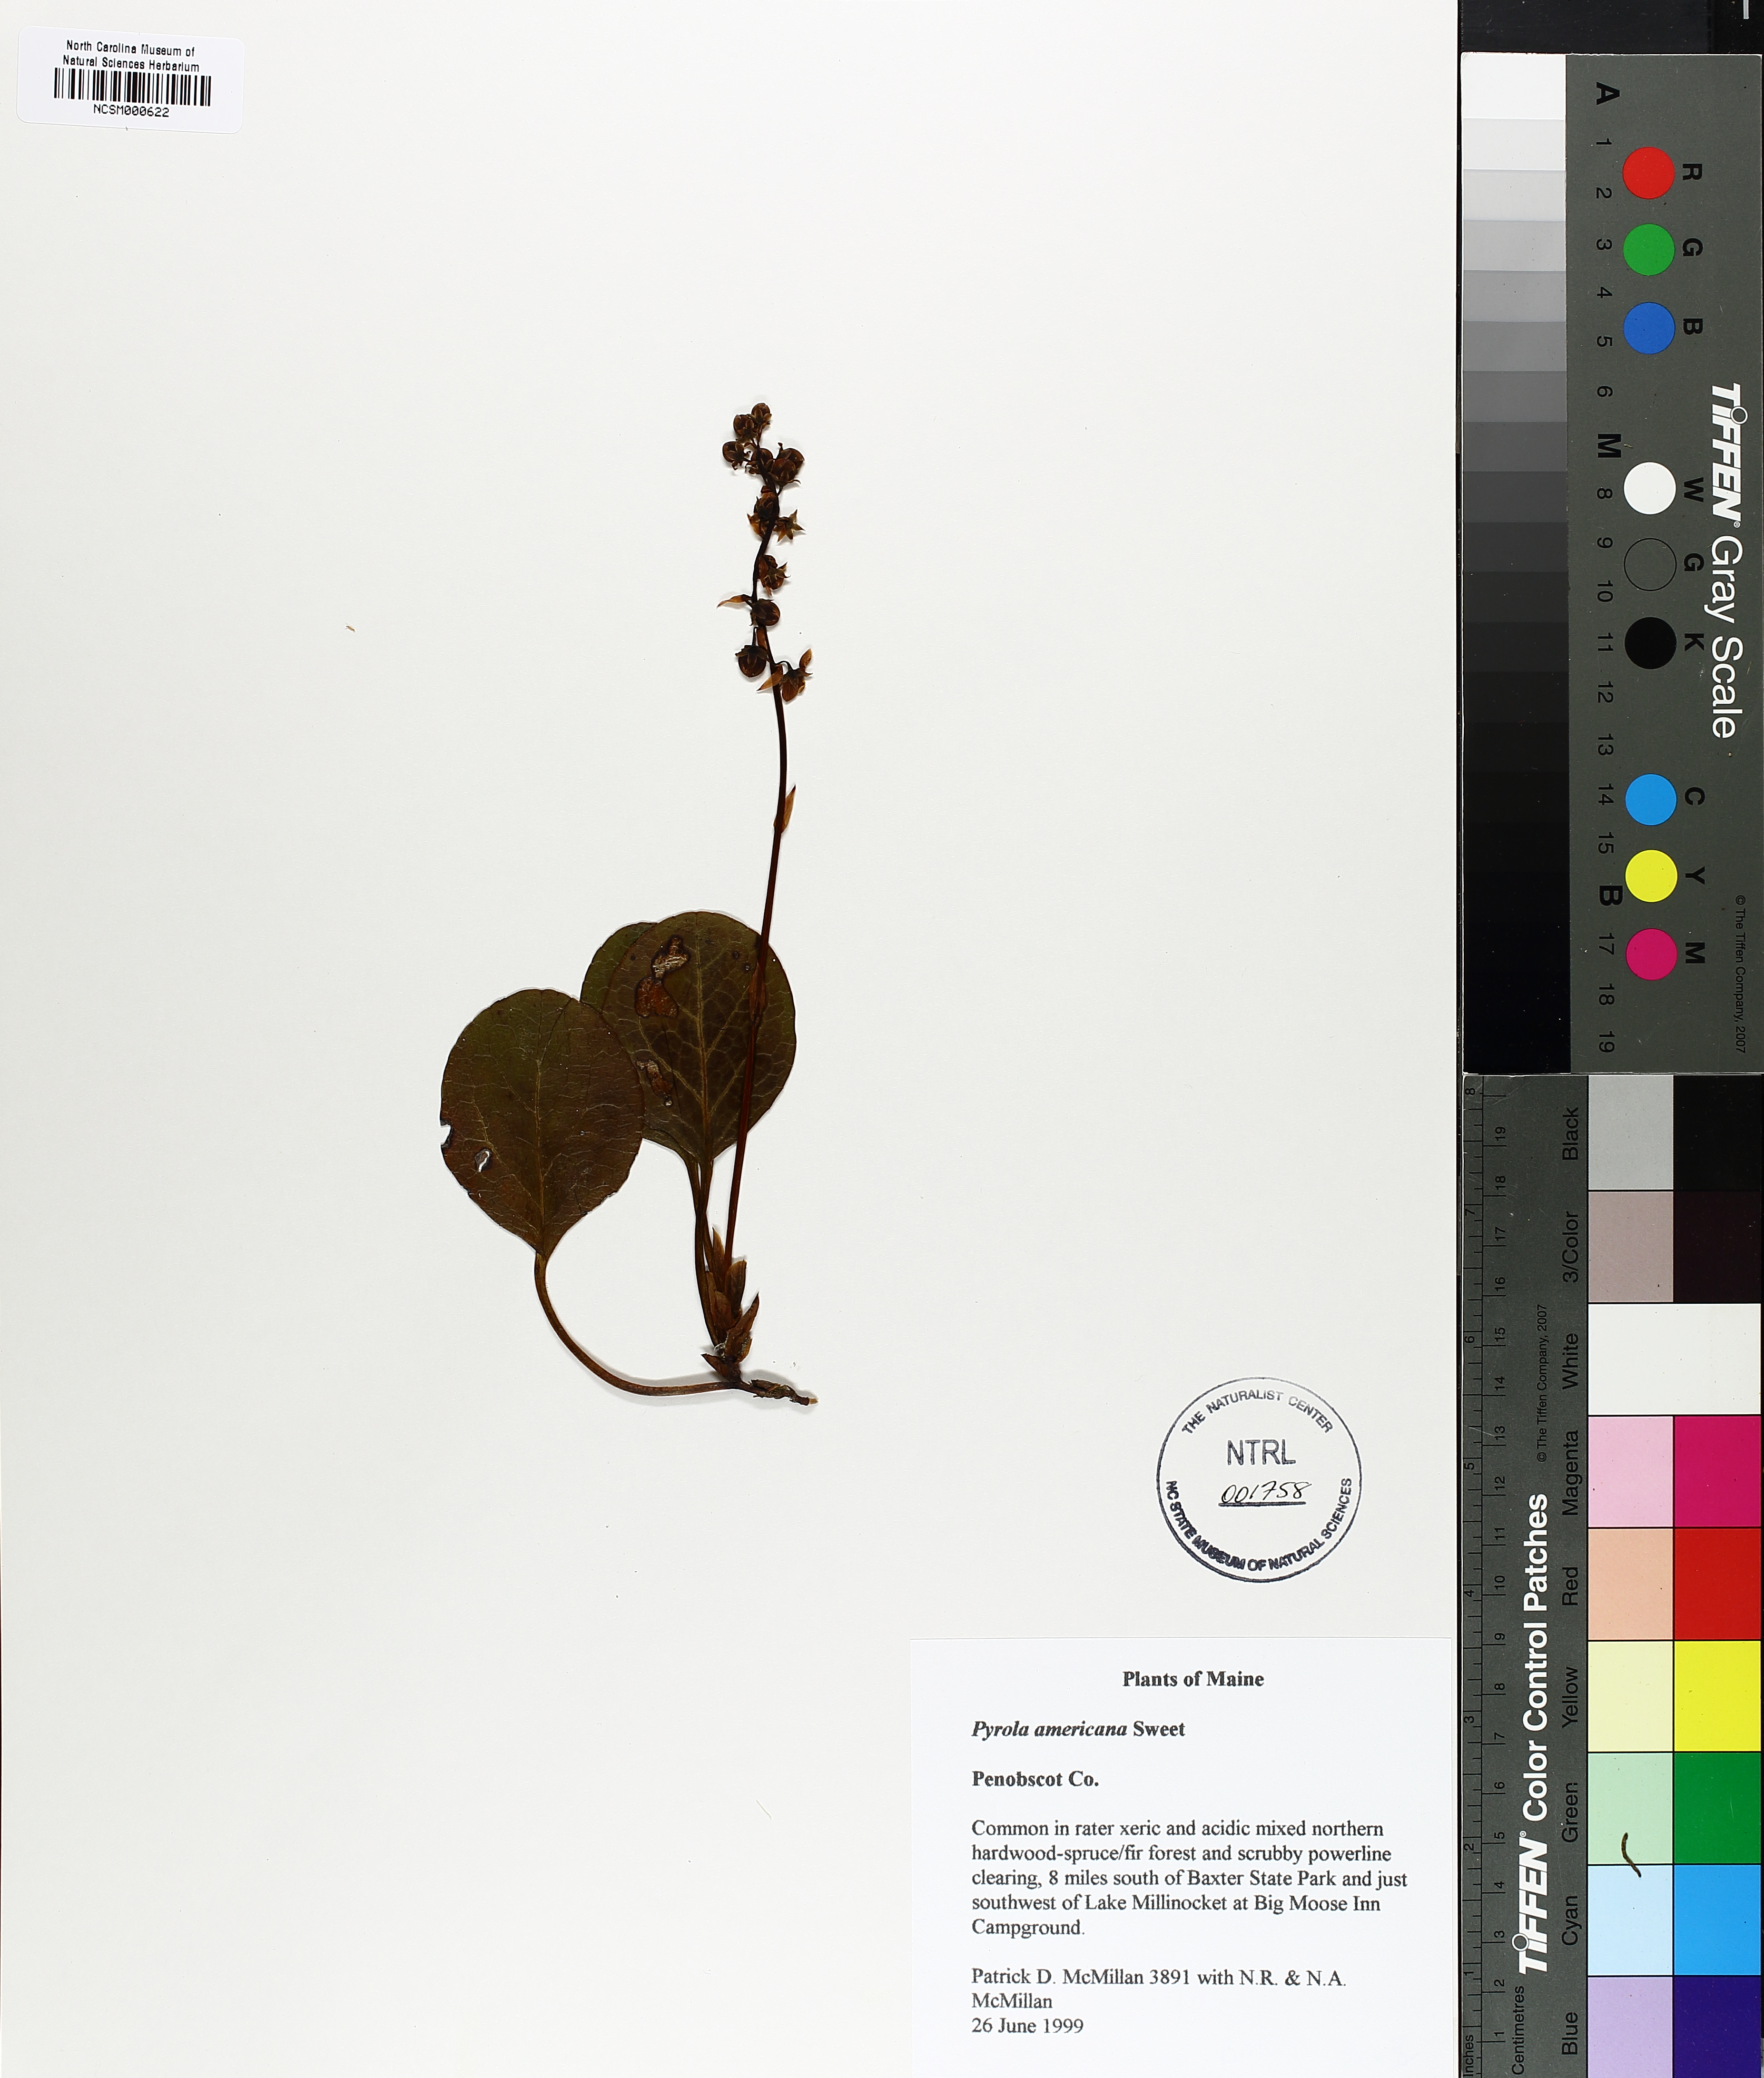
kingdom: Plantae
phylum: Tracheophyta
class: Magnoliopsida
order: Ericales
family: Ericaceae
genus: Pyrola
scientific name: Pyrola americana
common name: American wintergreen
